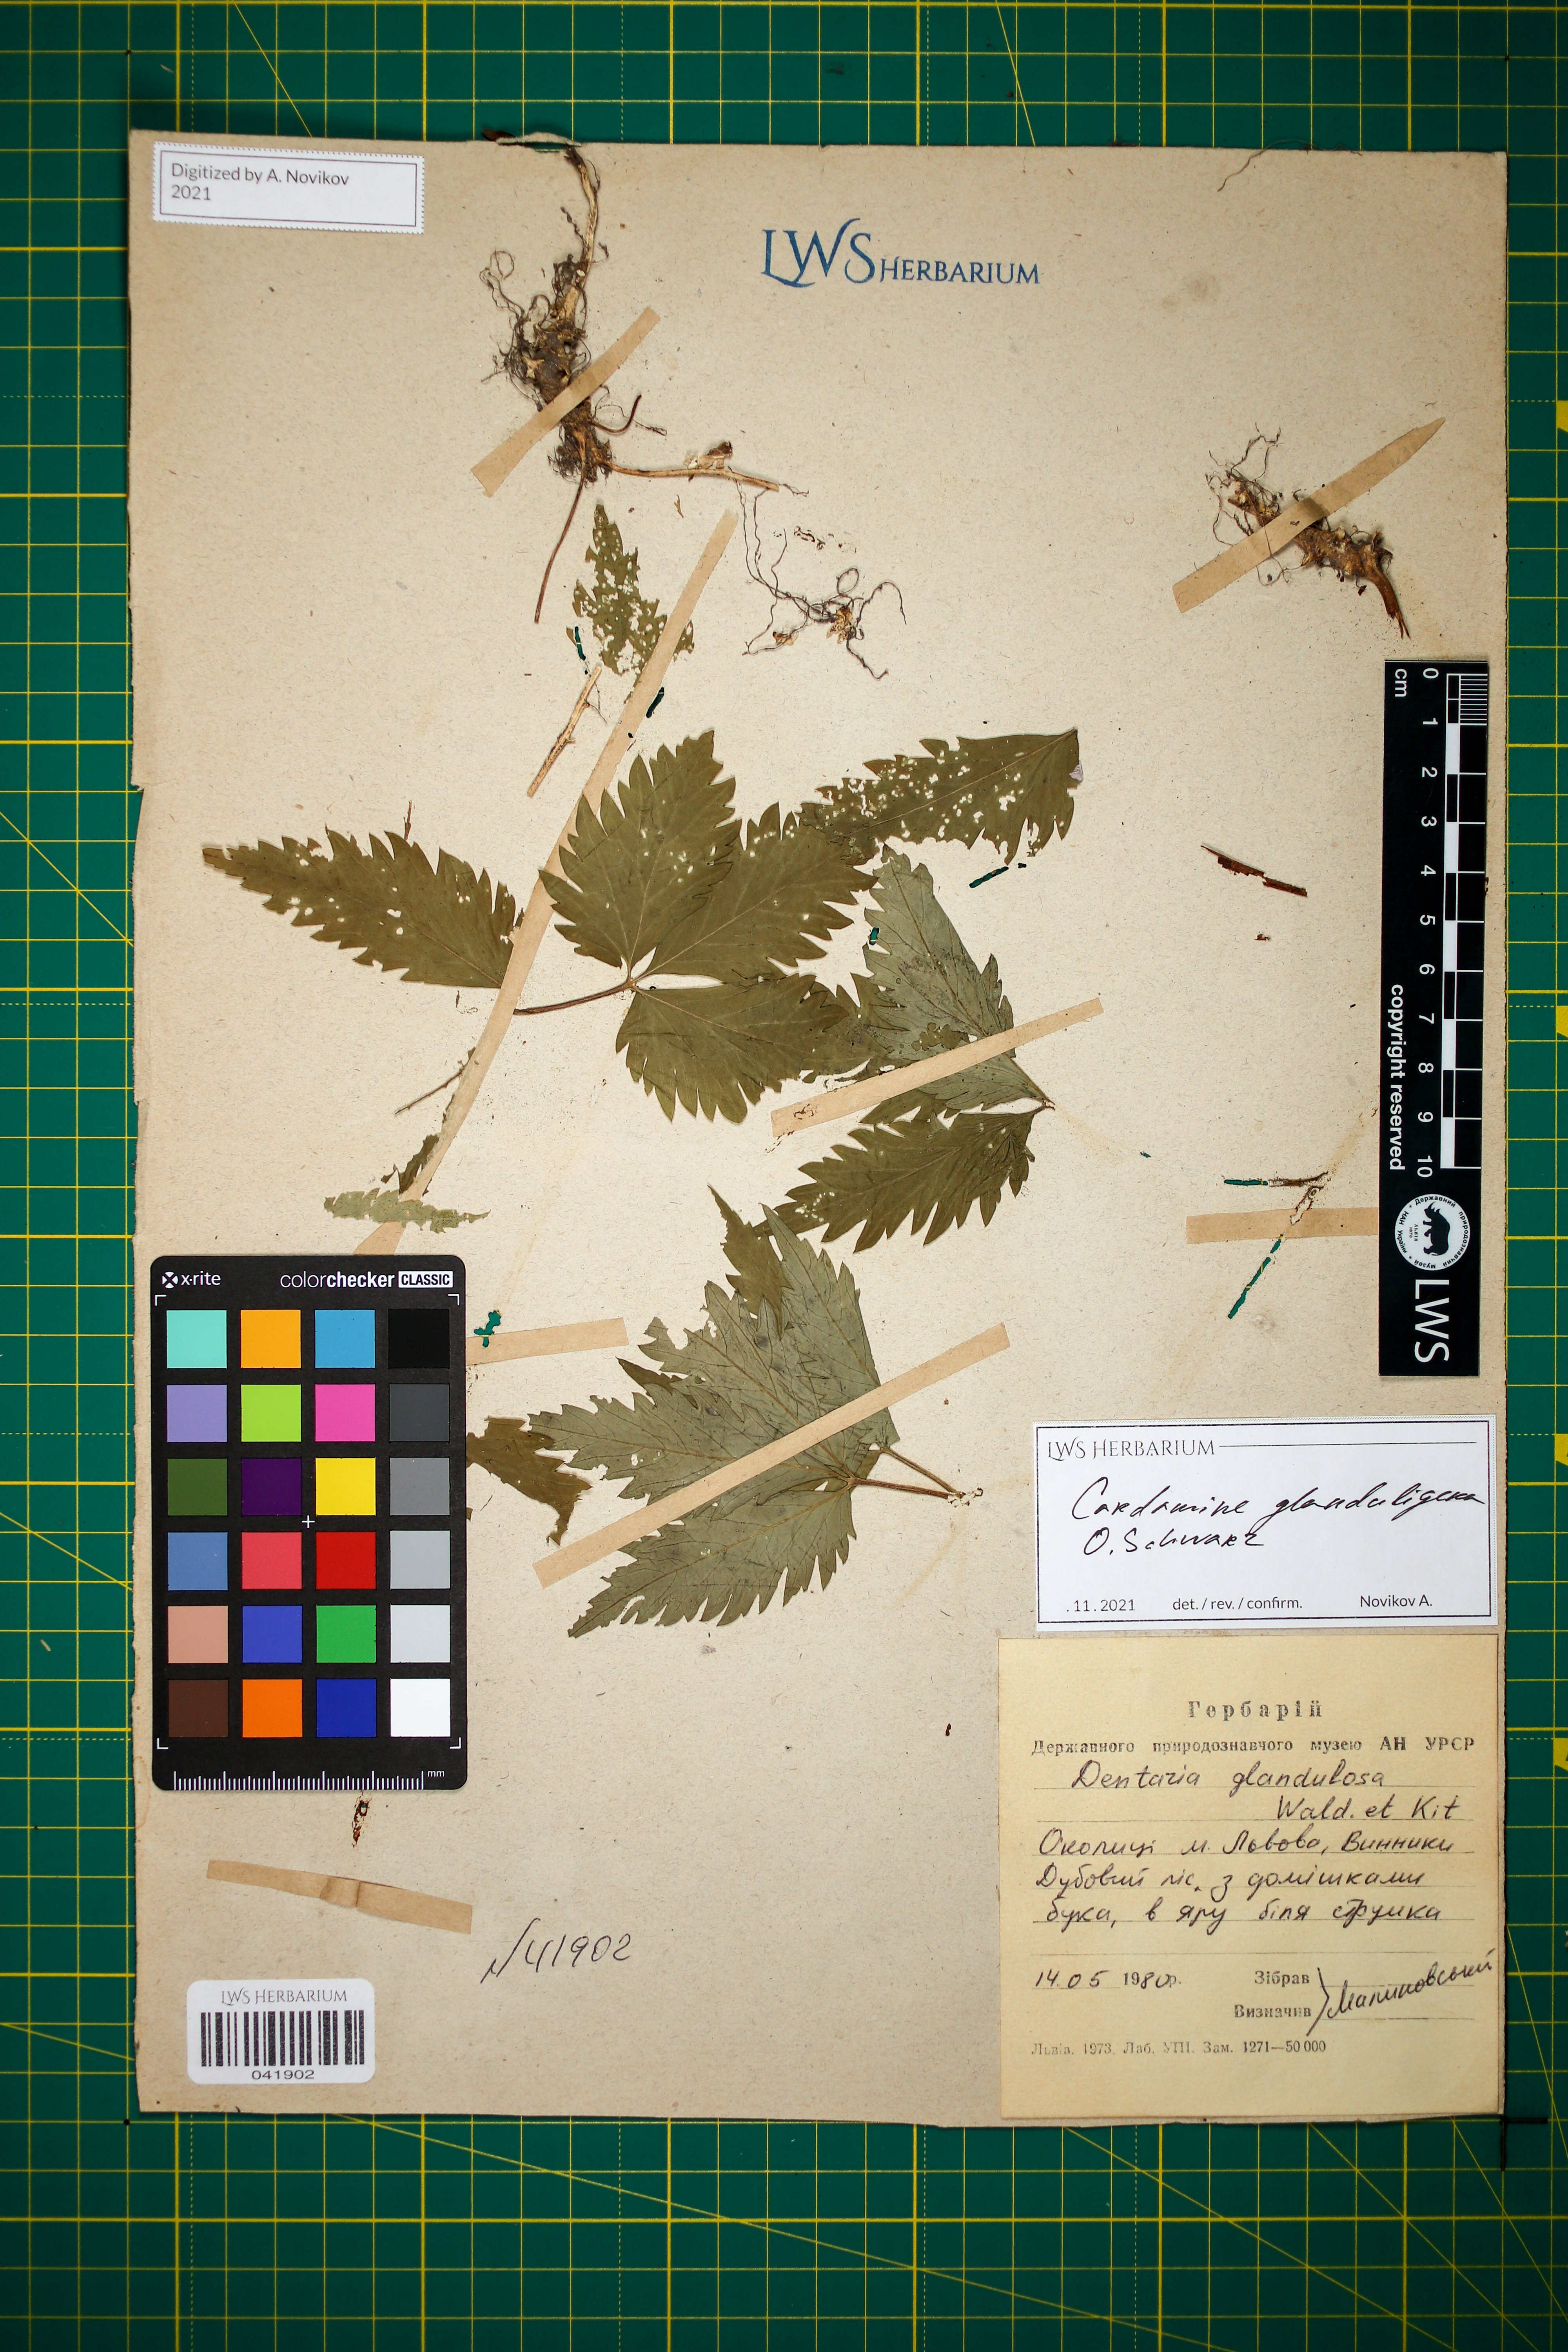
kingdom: Plantae
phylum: Tracheophyta
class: Magnoliopsida
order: Brassicales
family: Brassicaceae
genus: Cardamine
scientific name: Cardamine glanduligera
